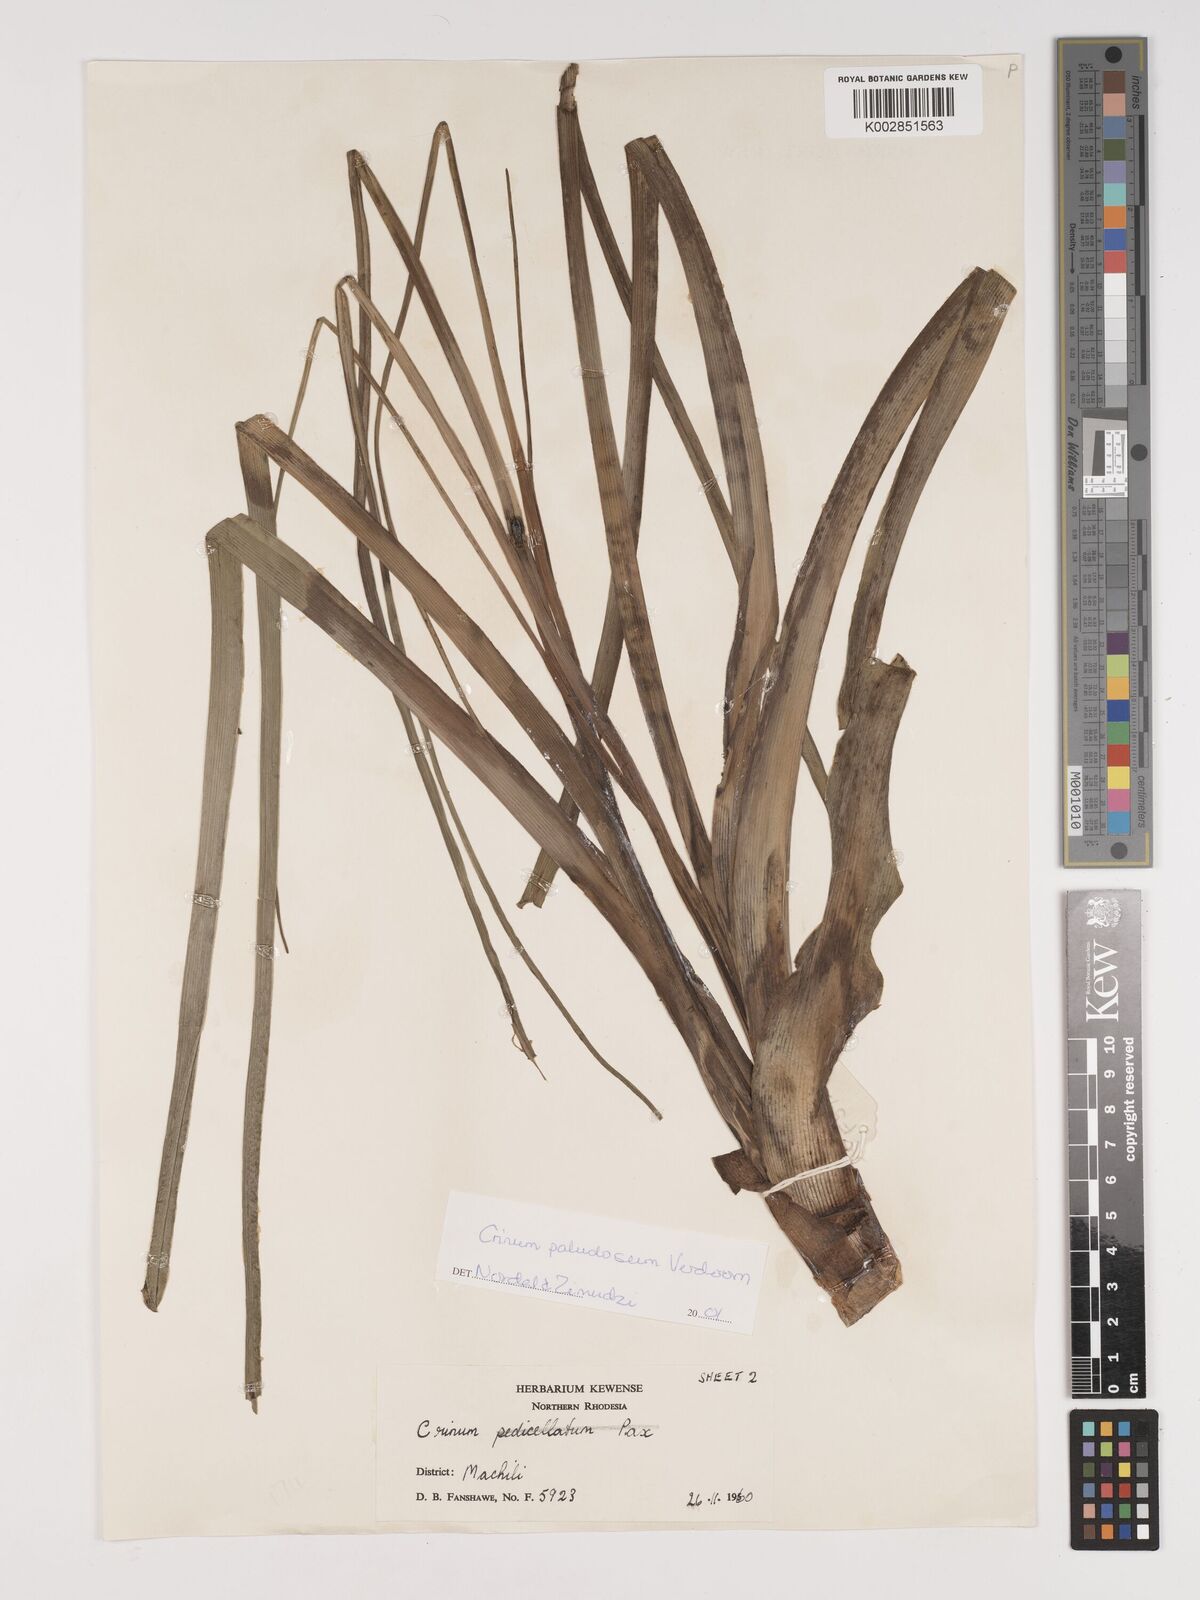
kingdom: Plantae
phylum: Tracheophyta
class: Liliopsida
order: Asparagales
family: Amaryllidaceae
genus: Crinum
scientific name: Crinum paludosum
